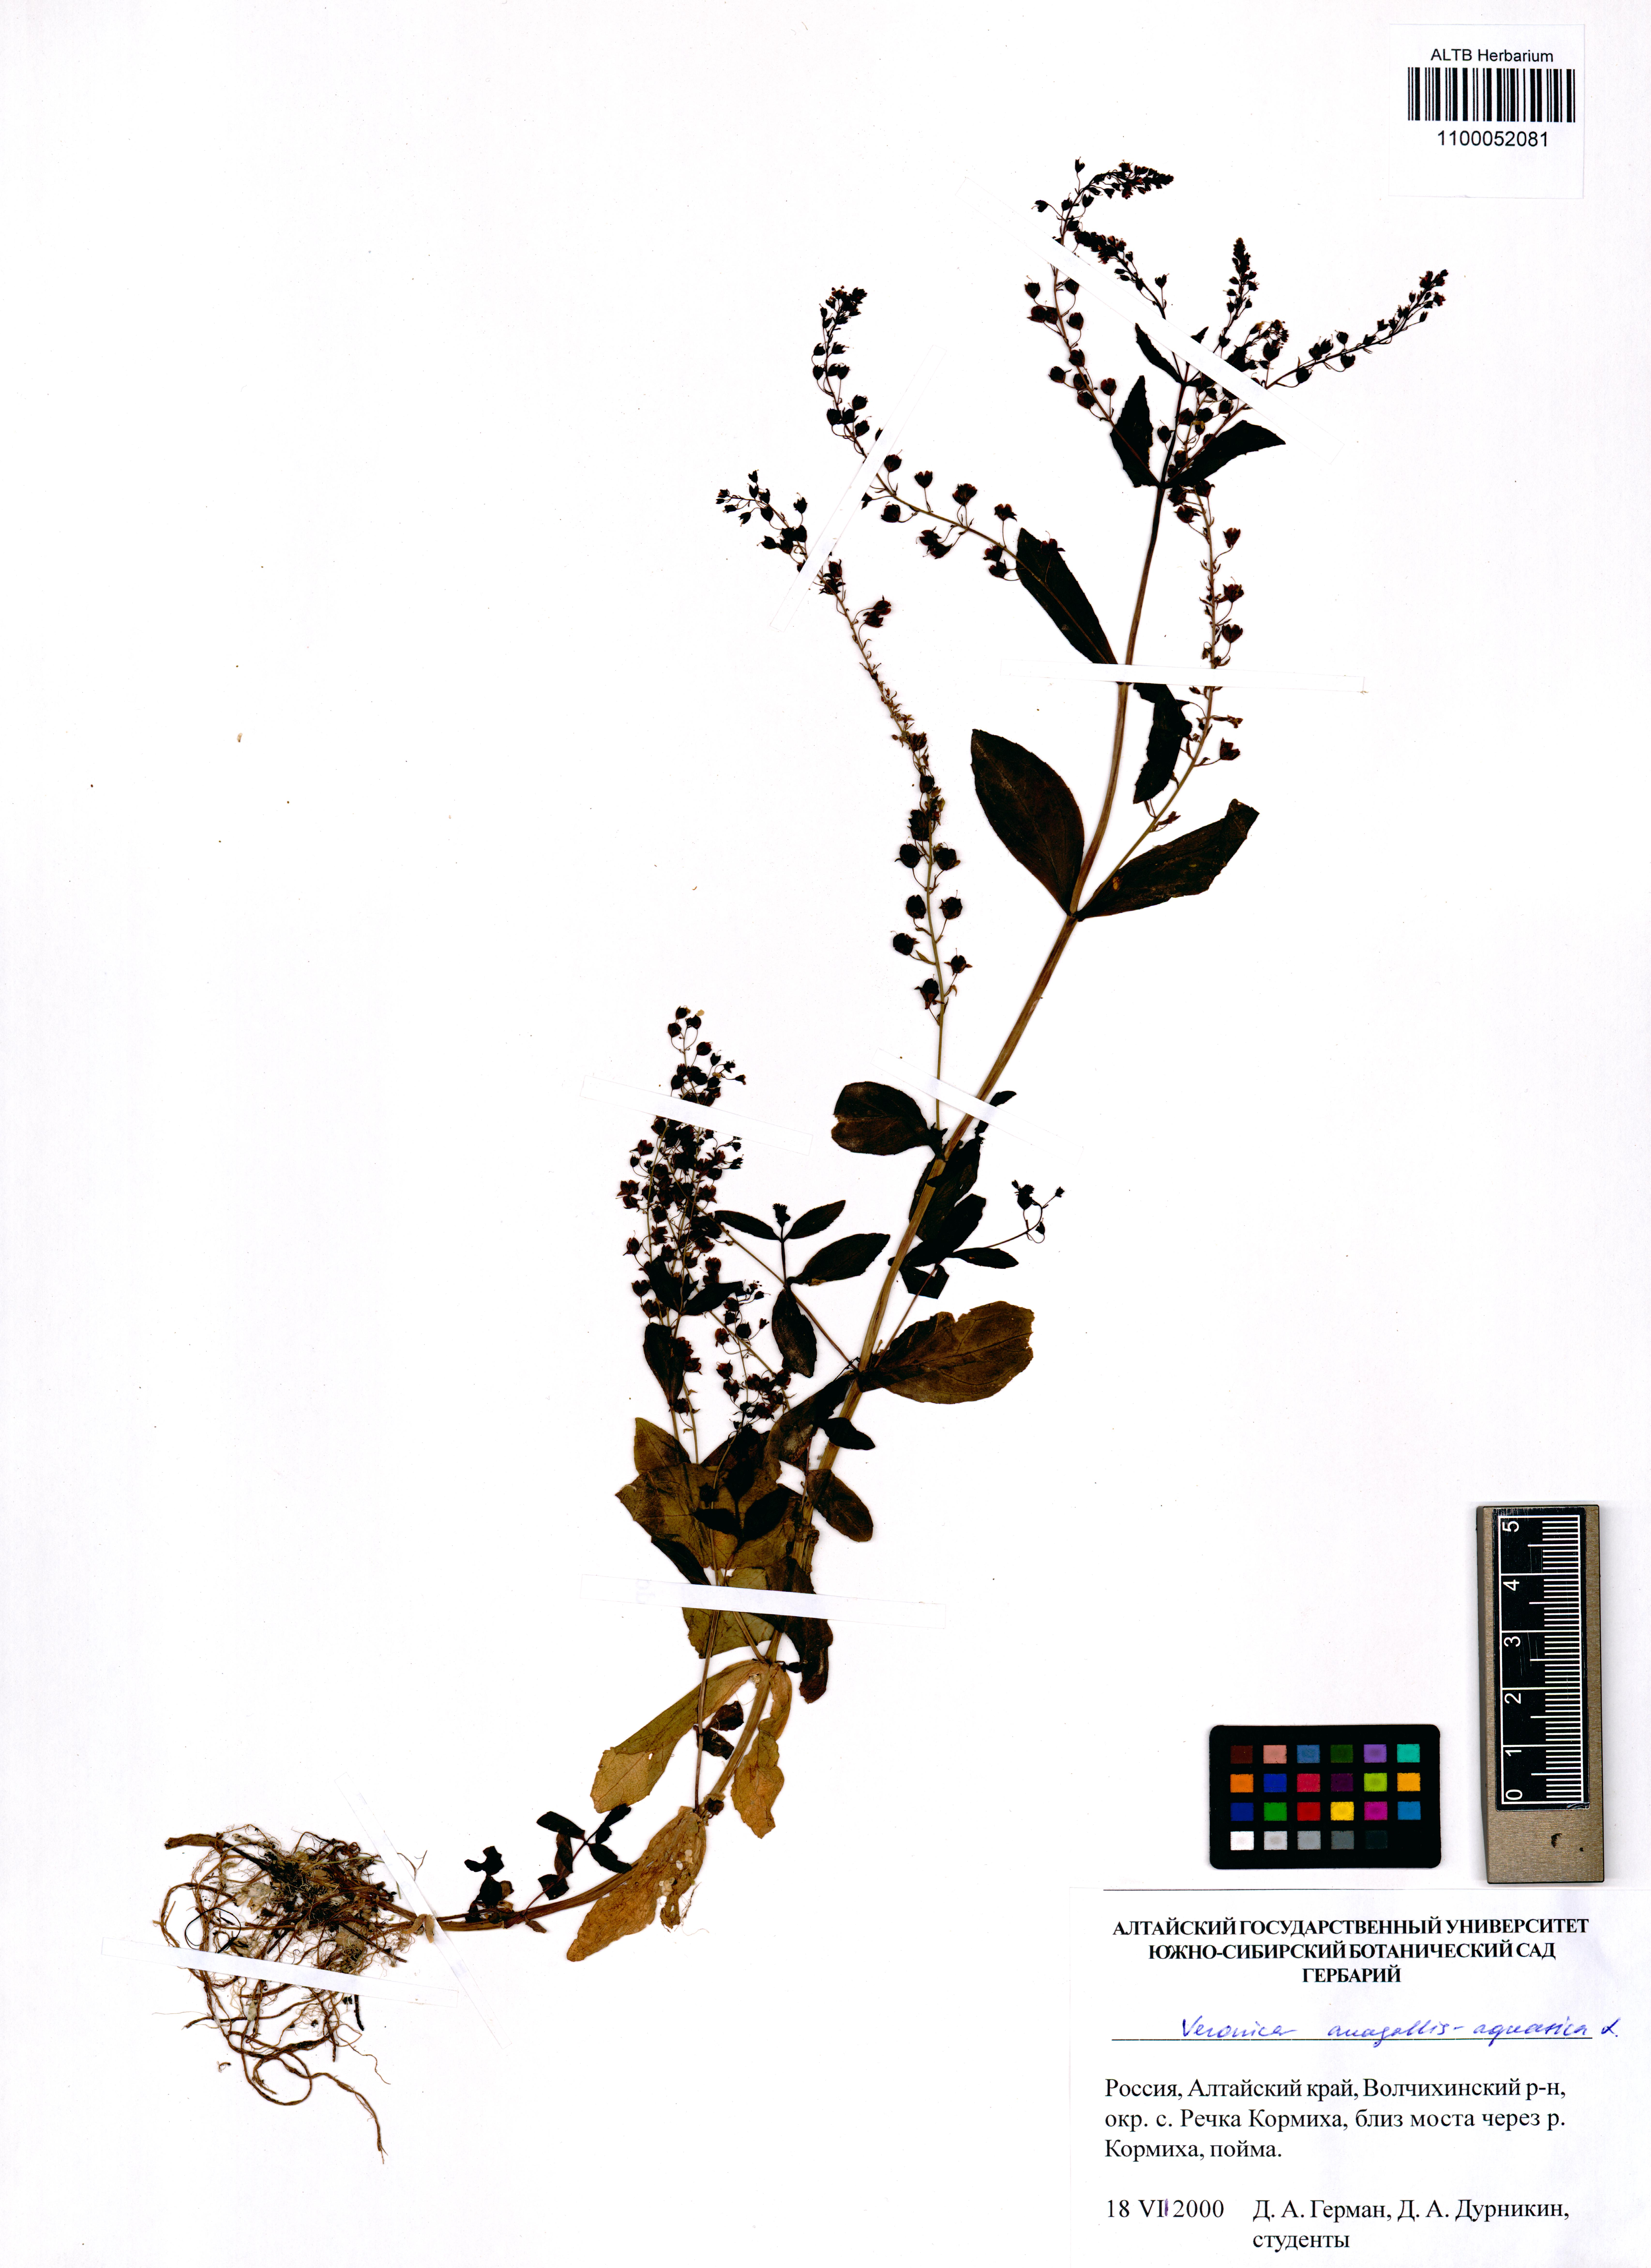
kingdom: Plantae
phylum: Tracheophyta
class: Magnoliopsida
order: Lamiales
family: Plantaginaceae
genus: Veronica
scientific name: Veronica anagallis-aquatica
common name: Water speedwell
